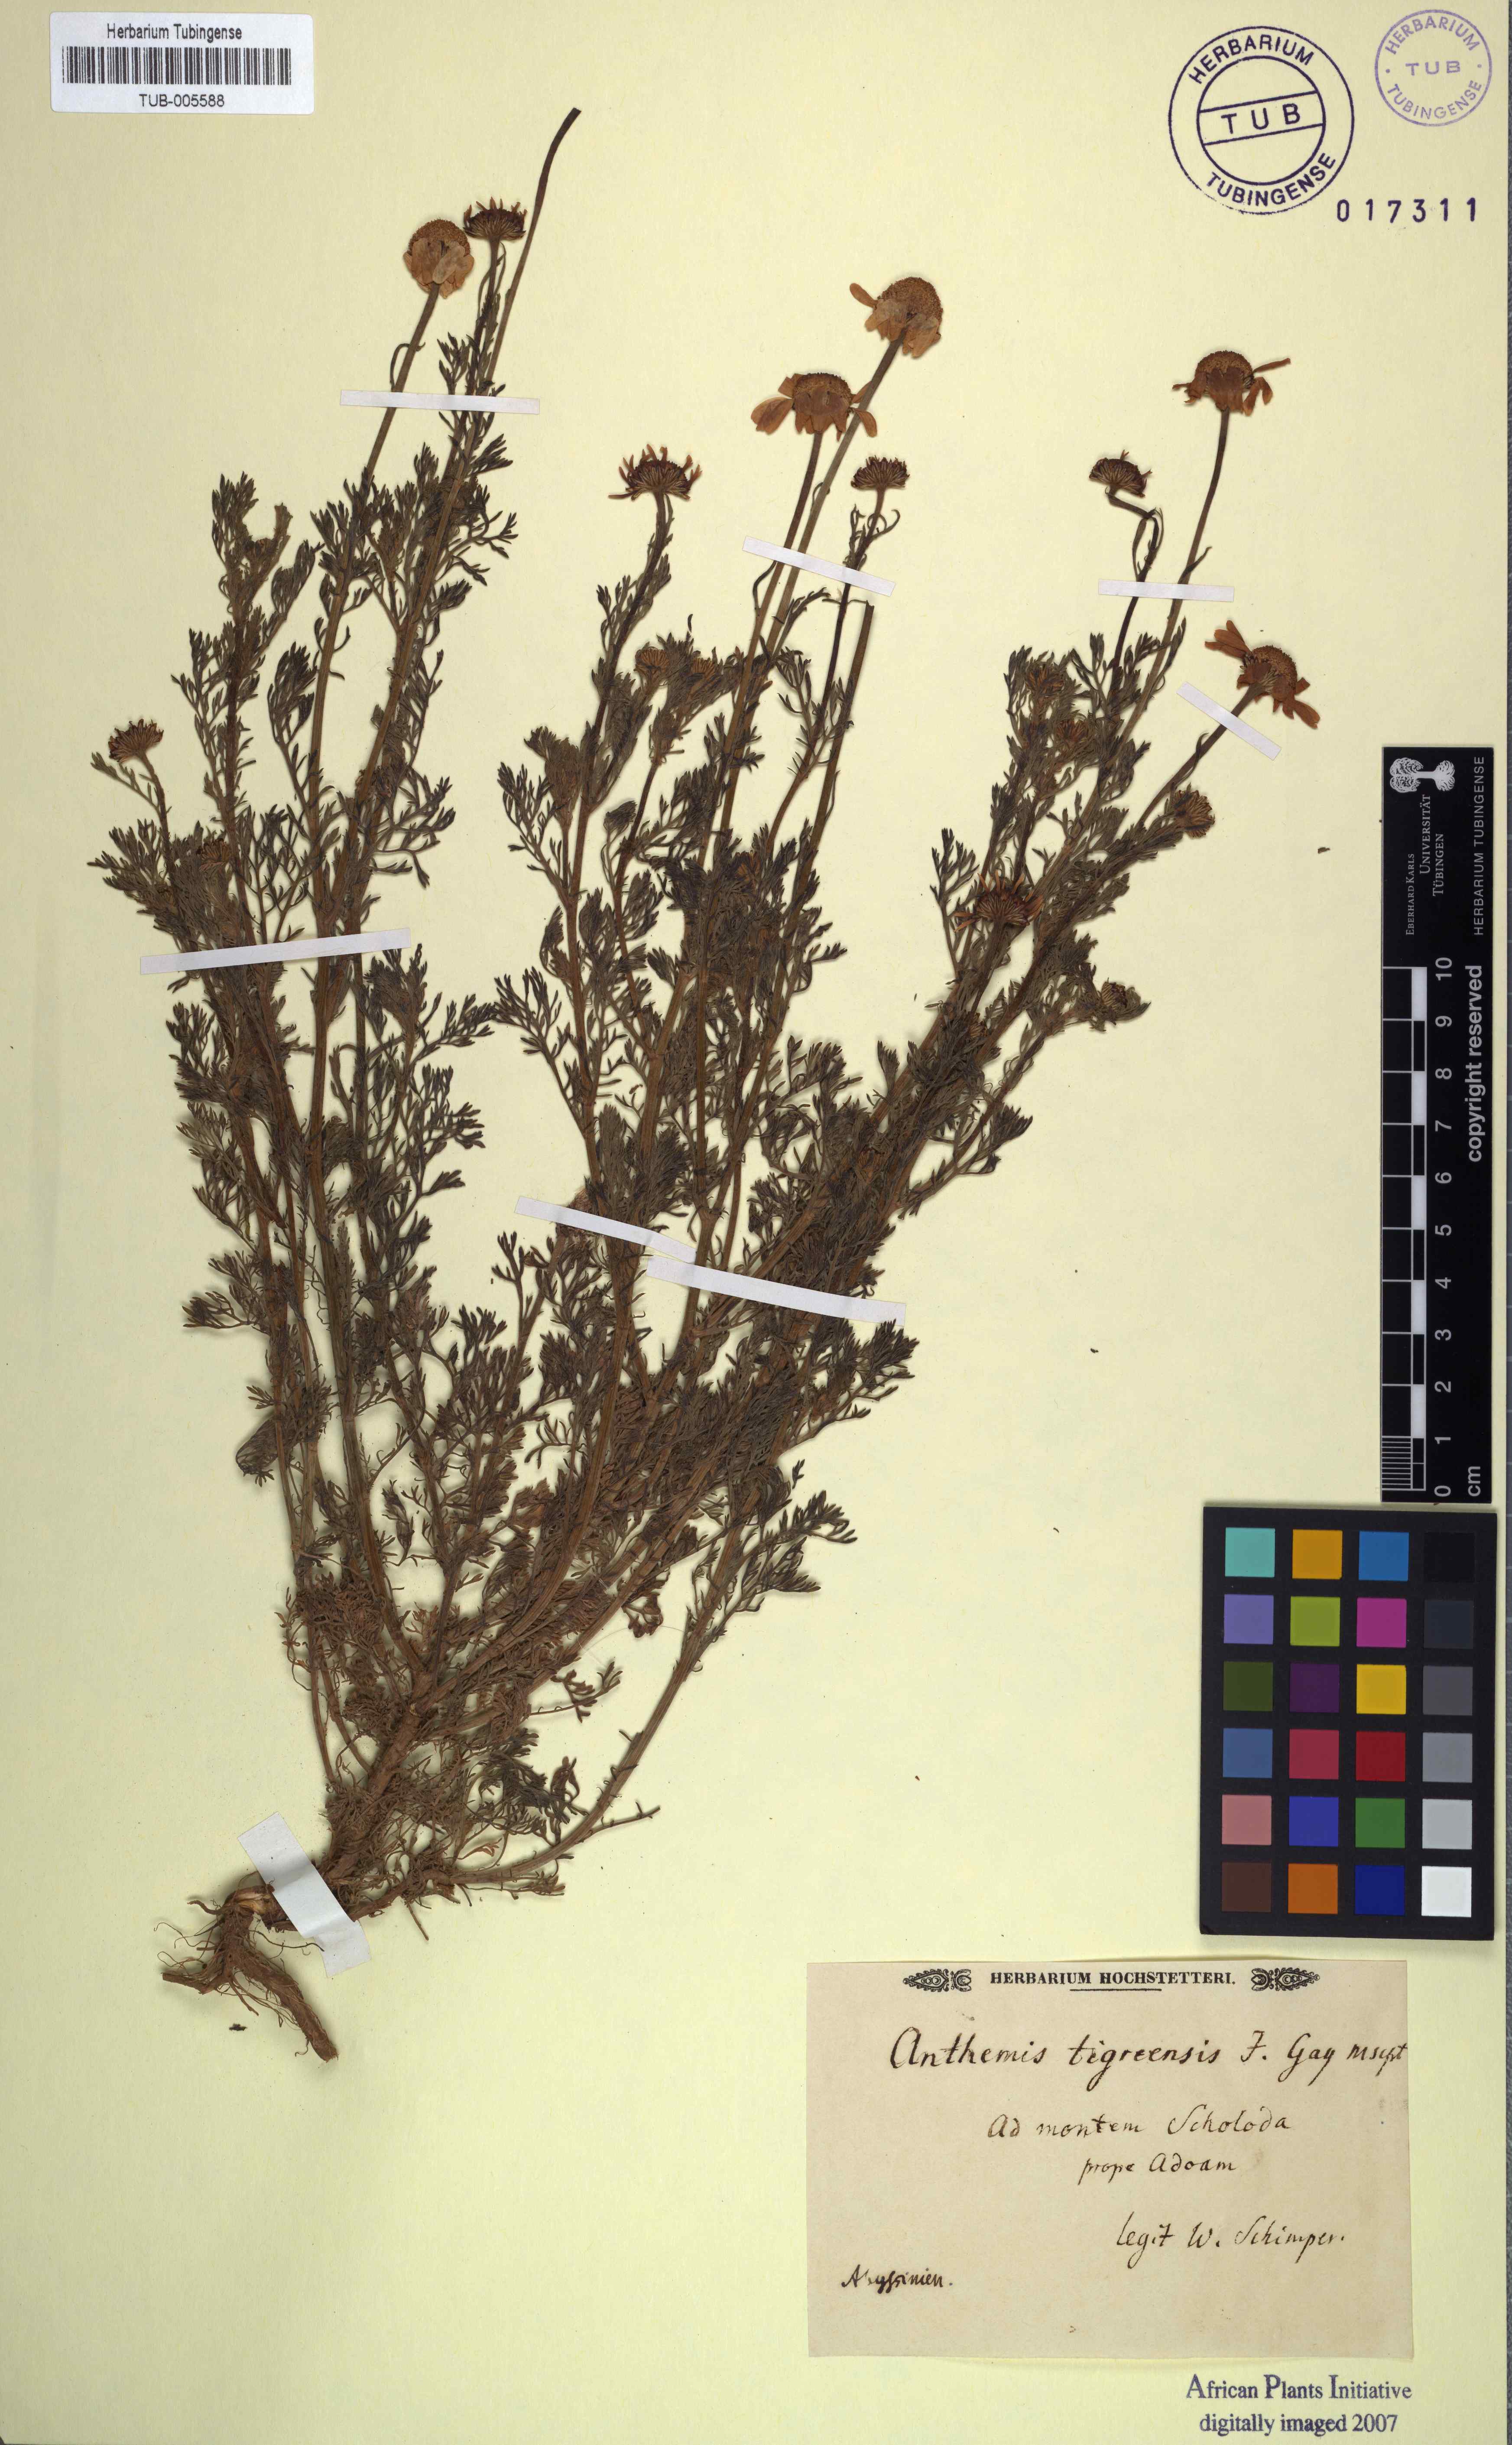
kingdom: Plantae
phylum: Tracheophyta
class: Magnoliopsida
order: Asterales
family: Asteraceae
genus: Anthemis
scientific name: Anthemis tigreensis
